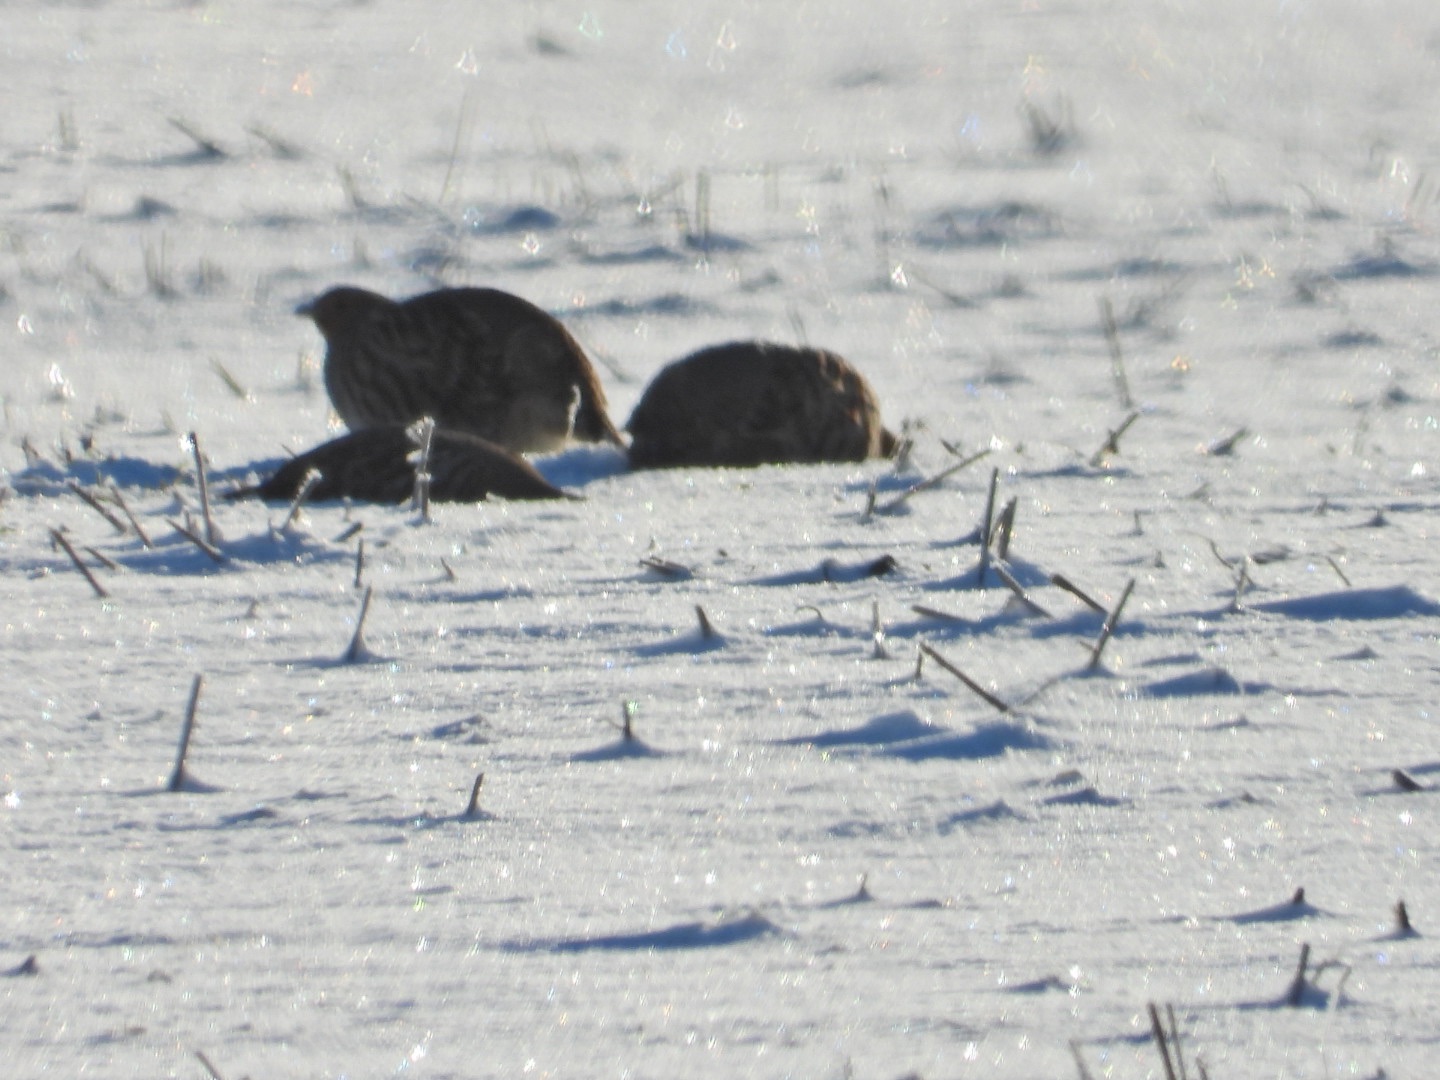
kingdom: Animalia
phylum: Chordata
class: Aves
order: Galliformes
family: Phasianidae
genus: Perdix
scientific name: Perdix perdix
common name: Agerhøne
